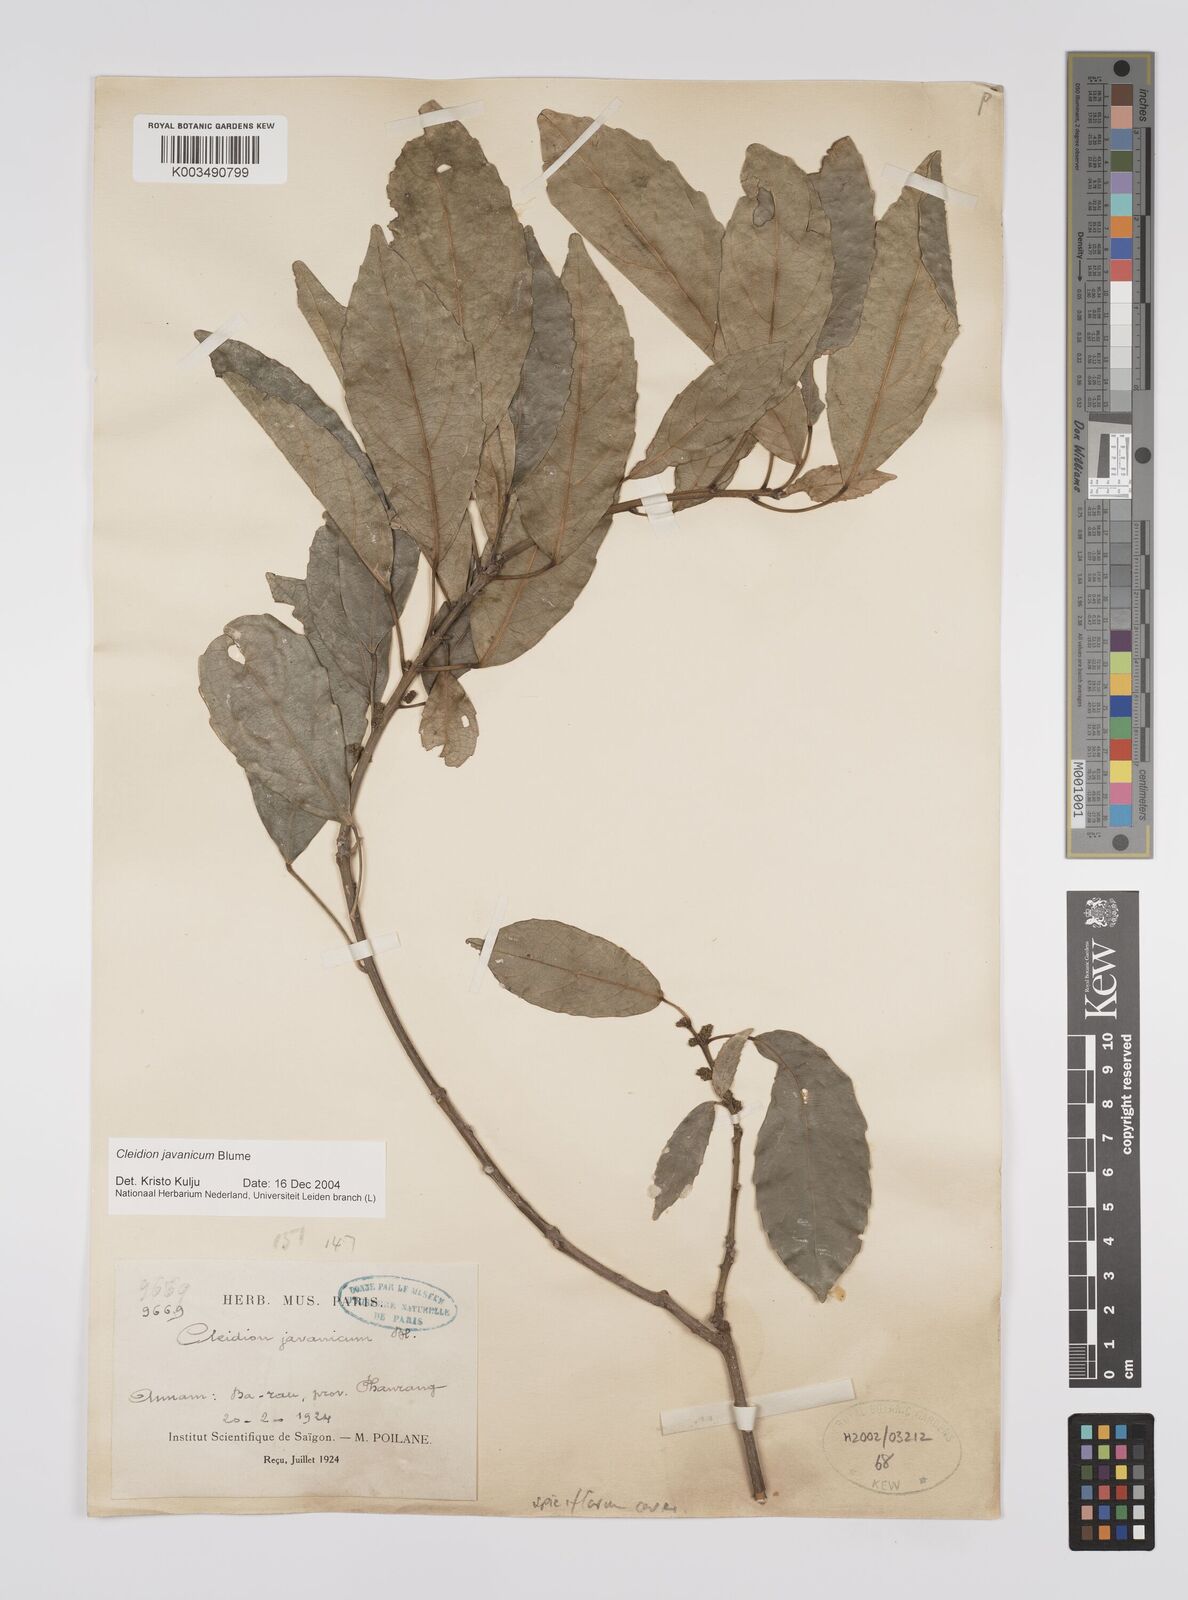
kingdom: Plantae
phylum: Tracheophyta
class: Magnoliopsida
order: Malpighiales
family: Euphorbiaceae
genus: Cleidion
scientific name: Cleidion javanicum
